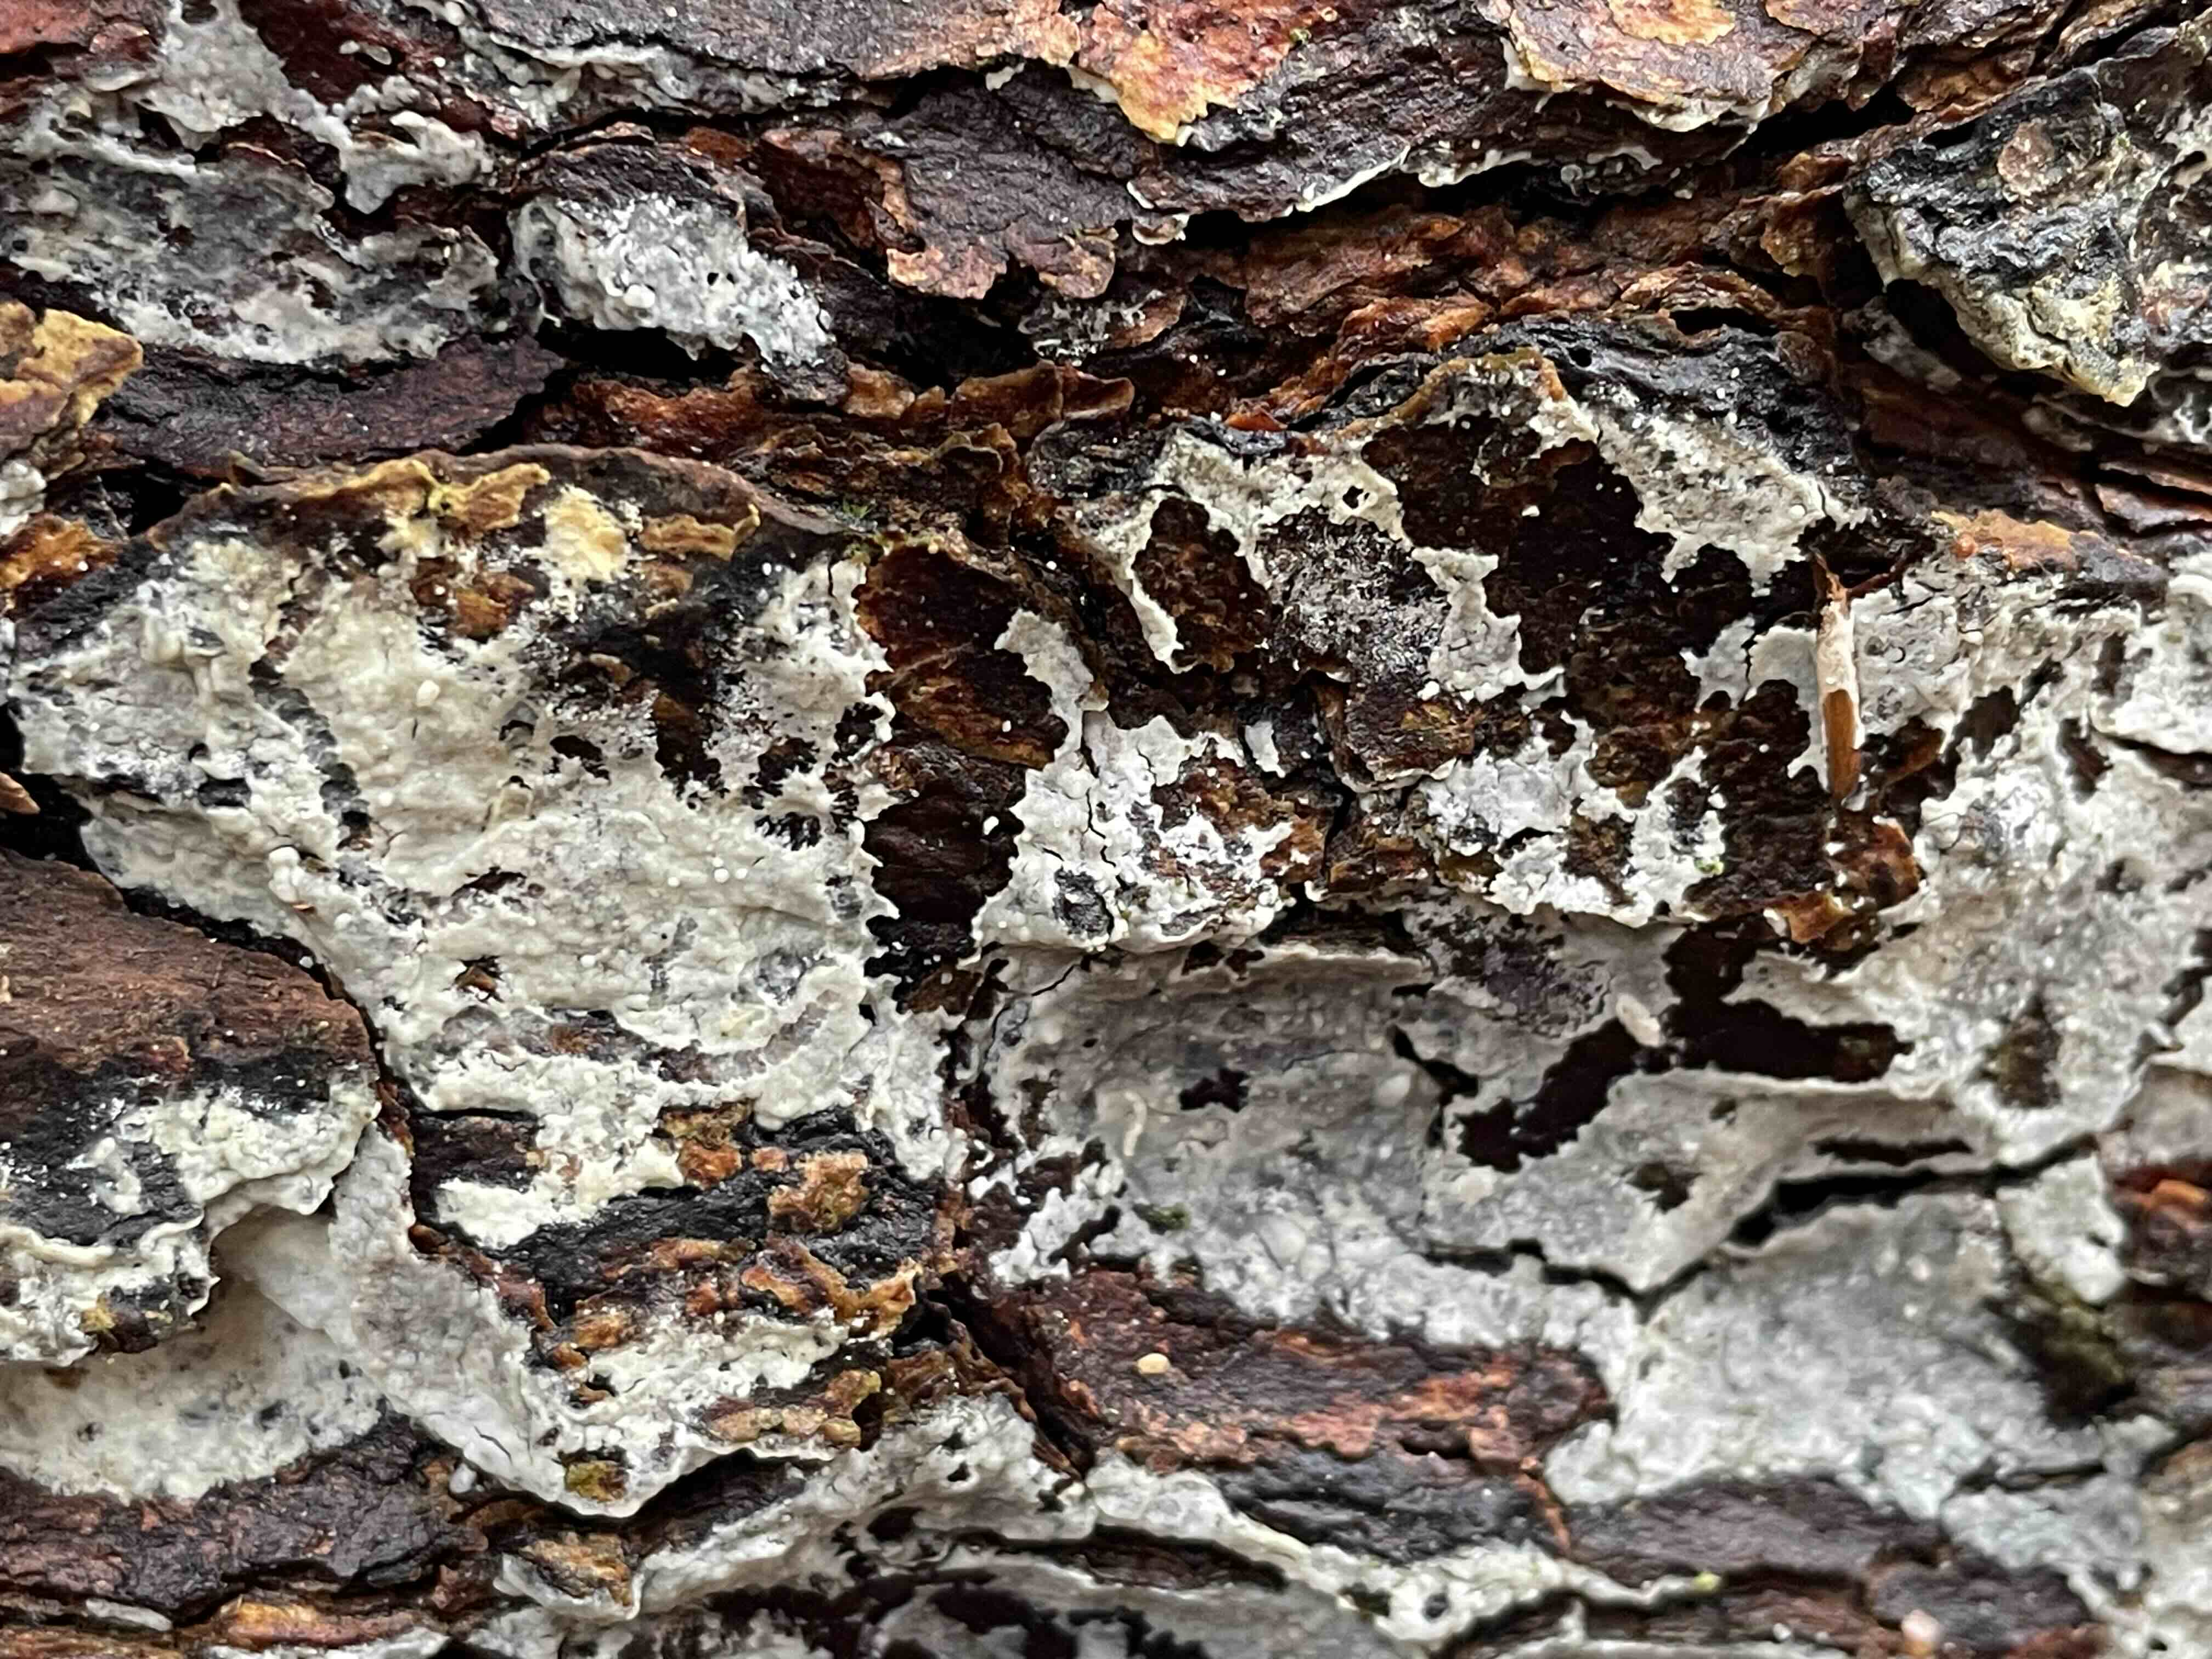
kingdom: Fungi
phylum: Basidiomycota
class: Agaricomycetes
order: Corticiales
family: Corticiaceae
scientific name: Corticiaceae
